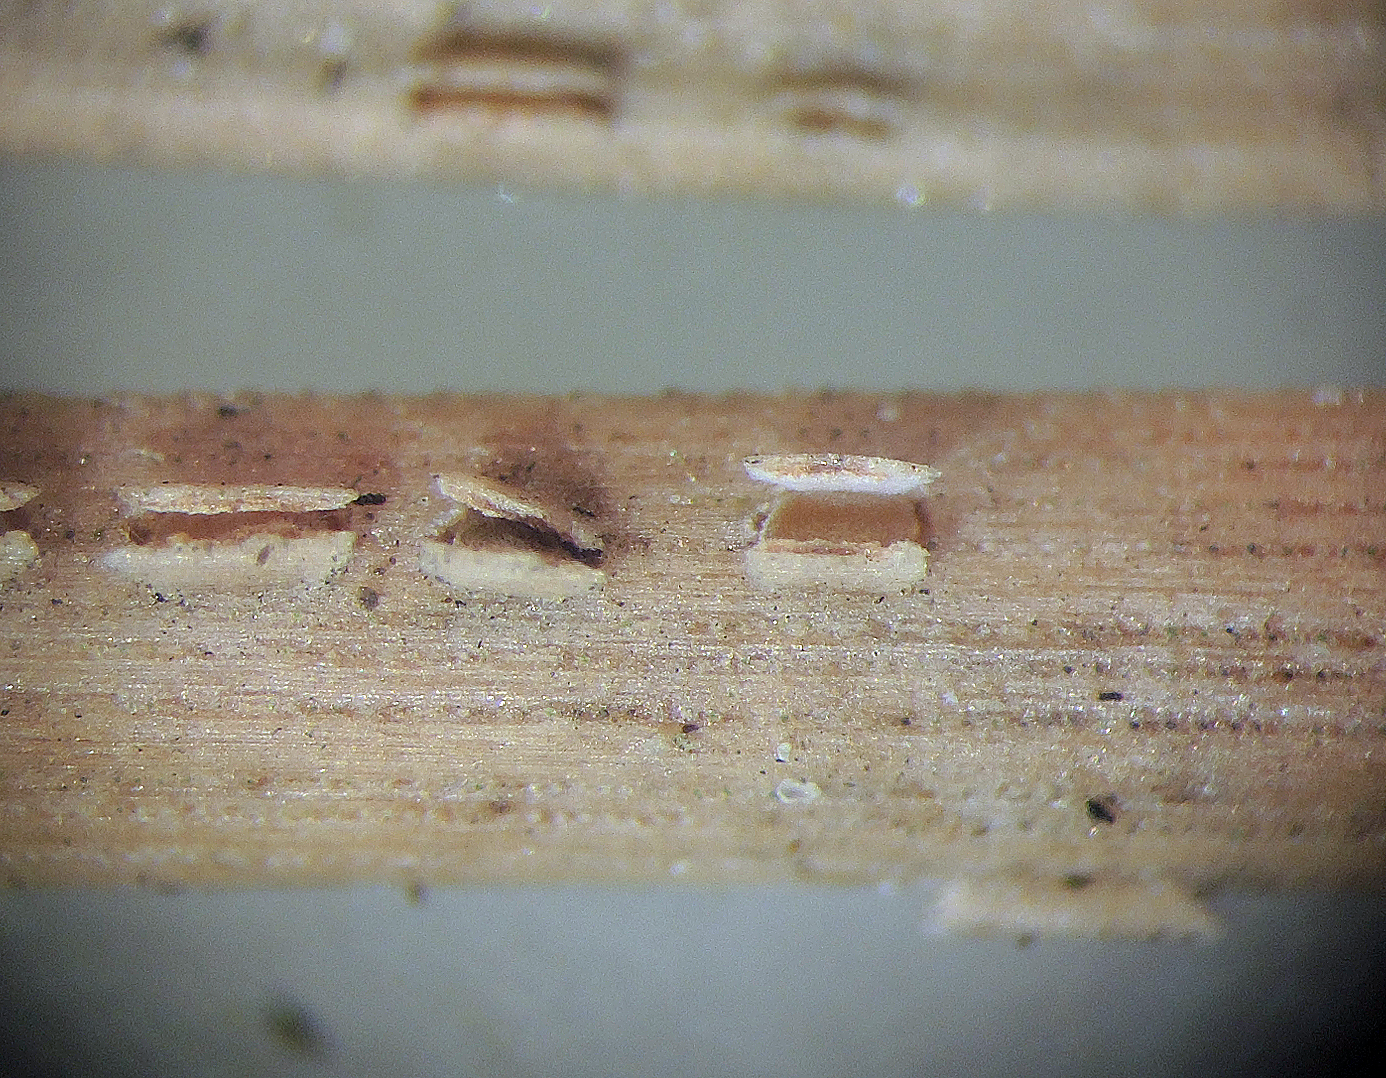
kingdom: Fungi
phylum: Ascomycota
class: Leotiomycetes
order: Chaetomellales
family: Marthamycetaceae
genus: Cyclaneusma
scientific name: Cyclaneusma minus
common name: tofliget nåleskive
